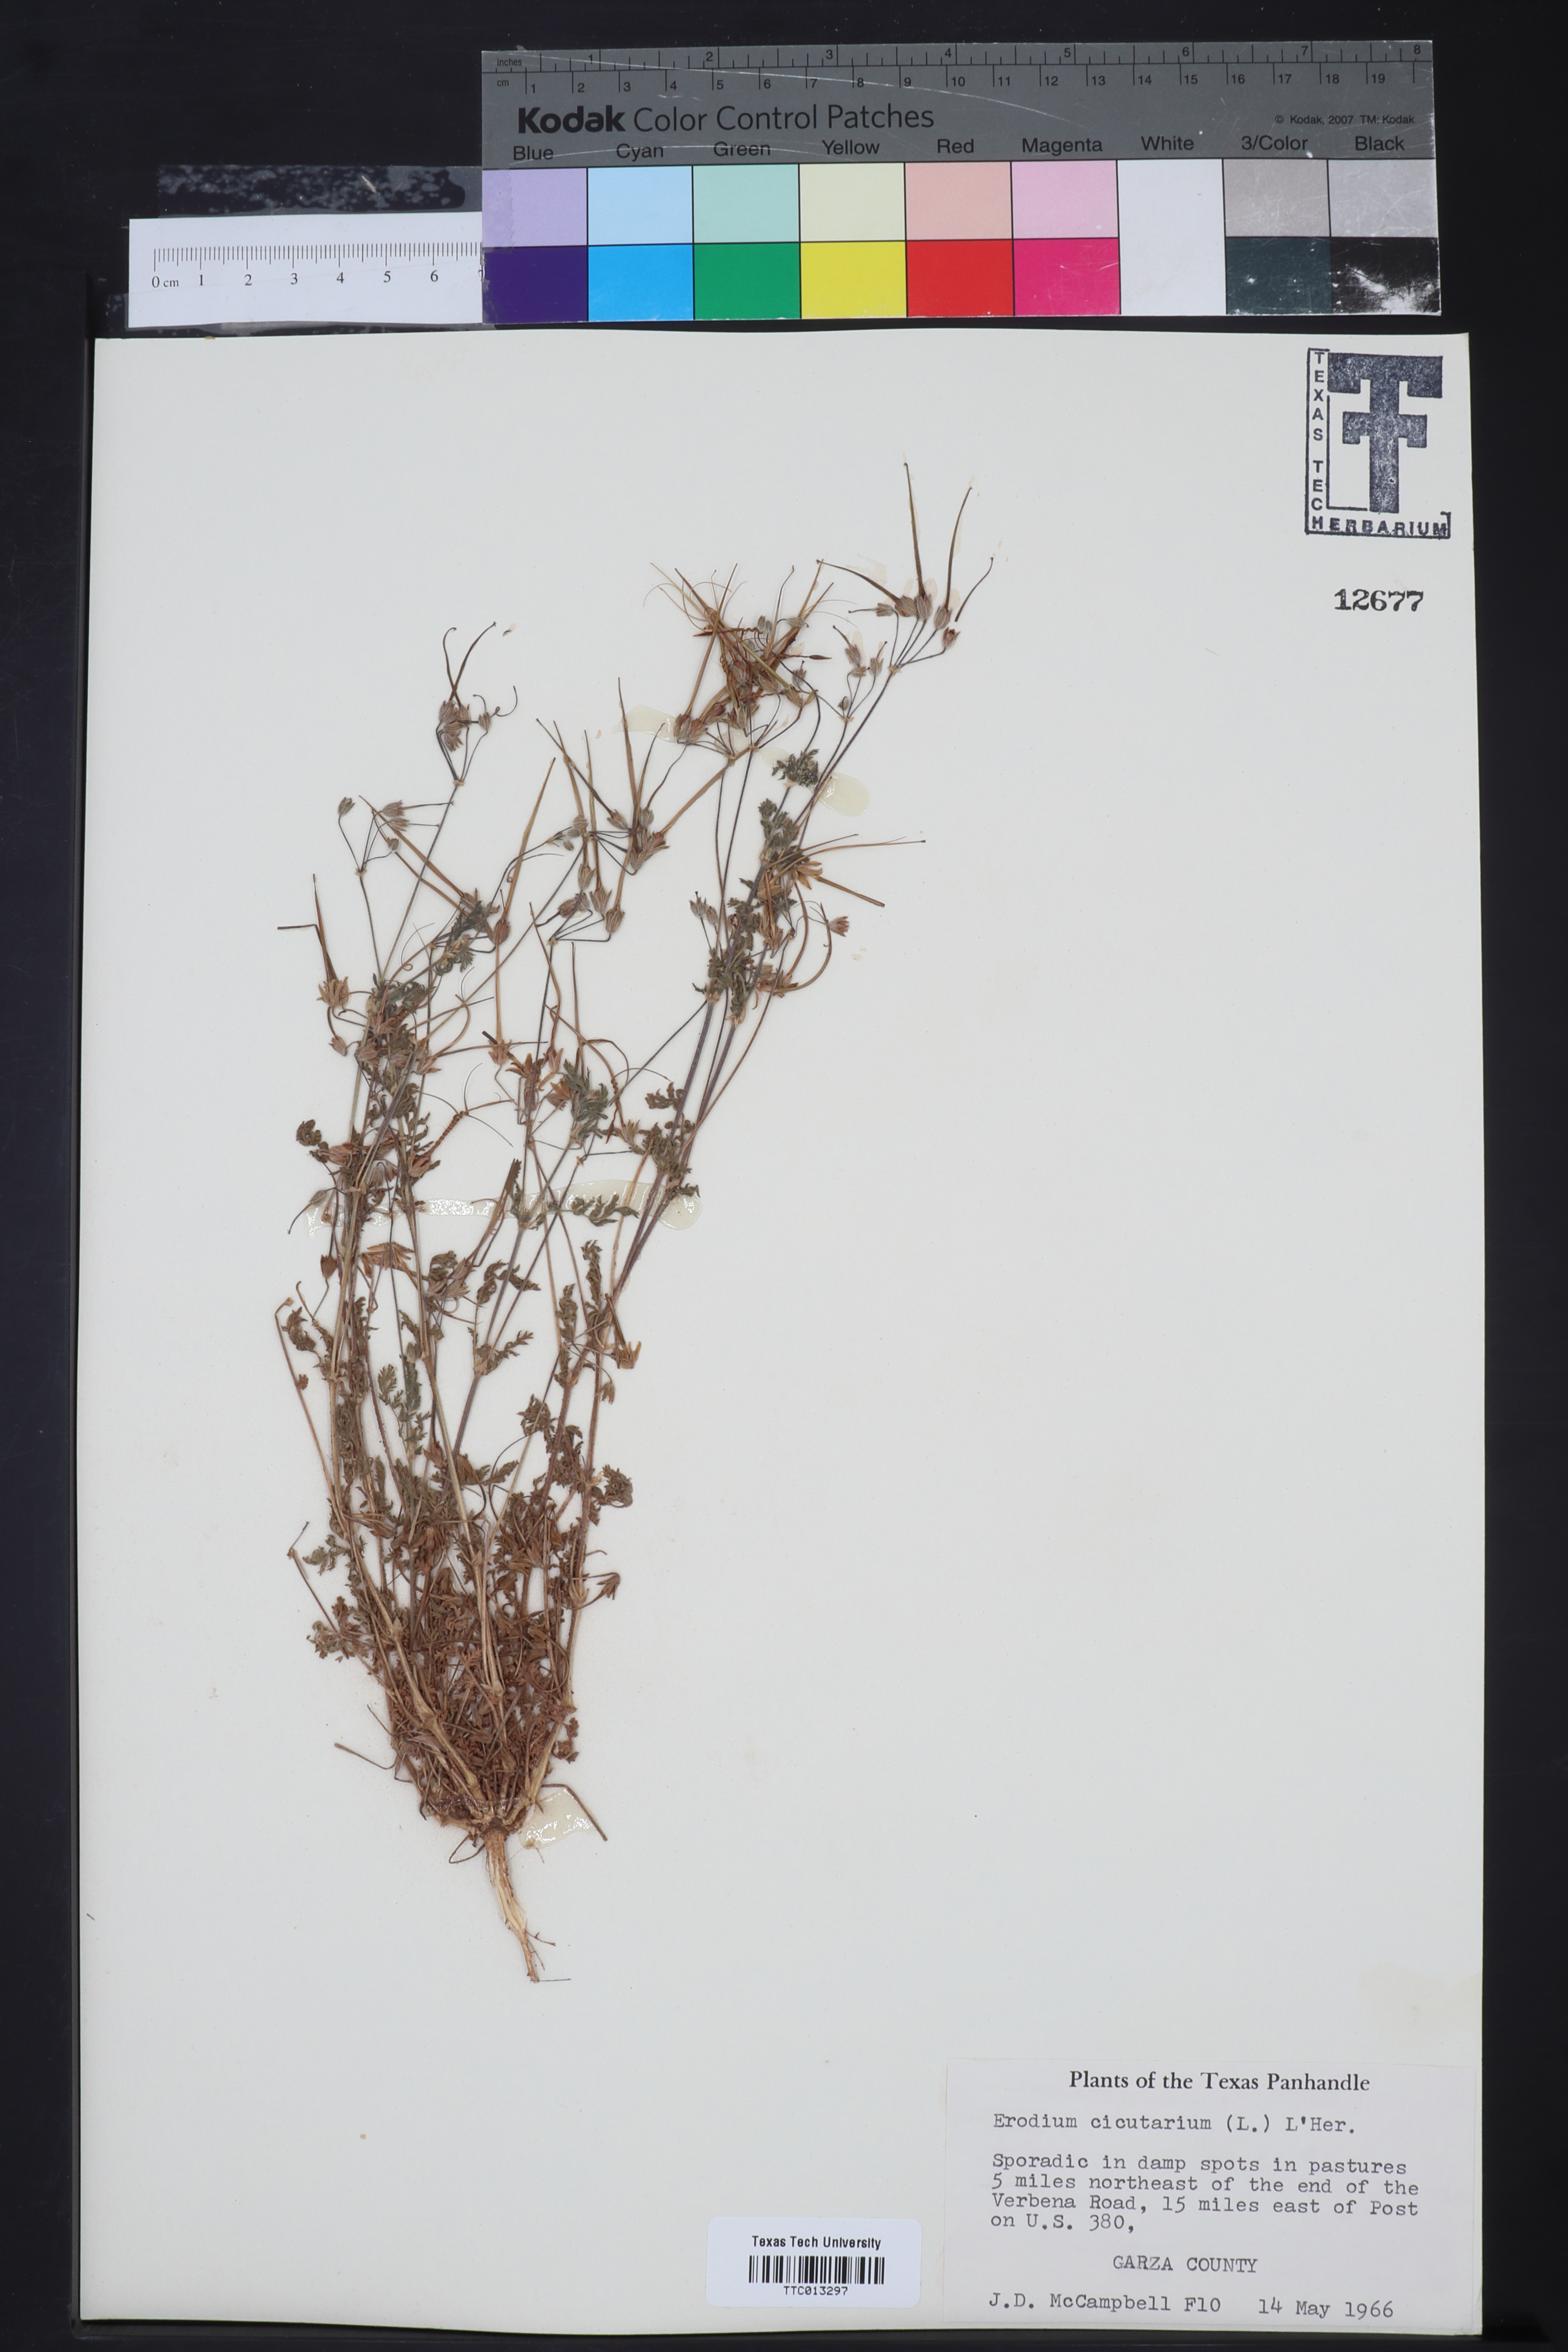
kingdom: Plantae
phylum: Tracheophyta
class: Magnoliopsida
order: Geraniales
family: Geraniaceae
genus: Erodium
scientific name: Erodium cicutarium
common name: Common stork's-bill
